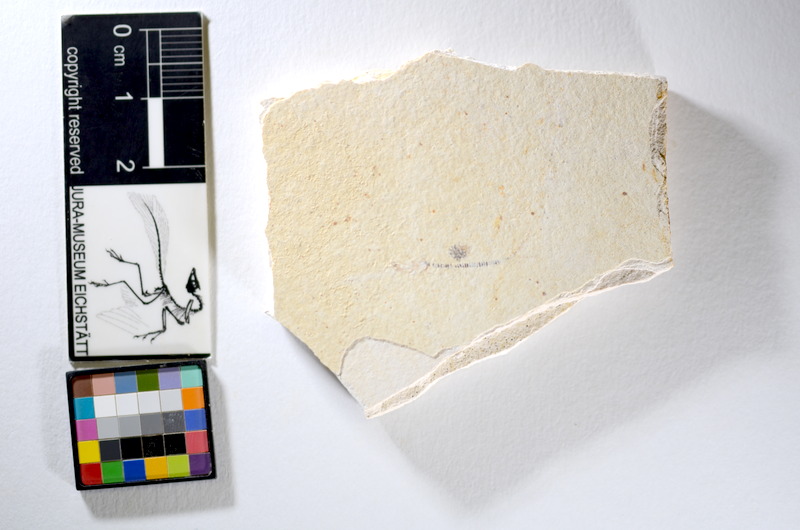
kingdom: Animalia
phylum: Chordata
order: Salmoniformes
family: Orthogonikleithridae
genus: Orthogonikleithrus
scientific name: Orthogonikleithrus hoelli
